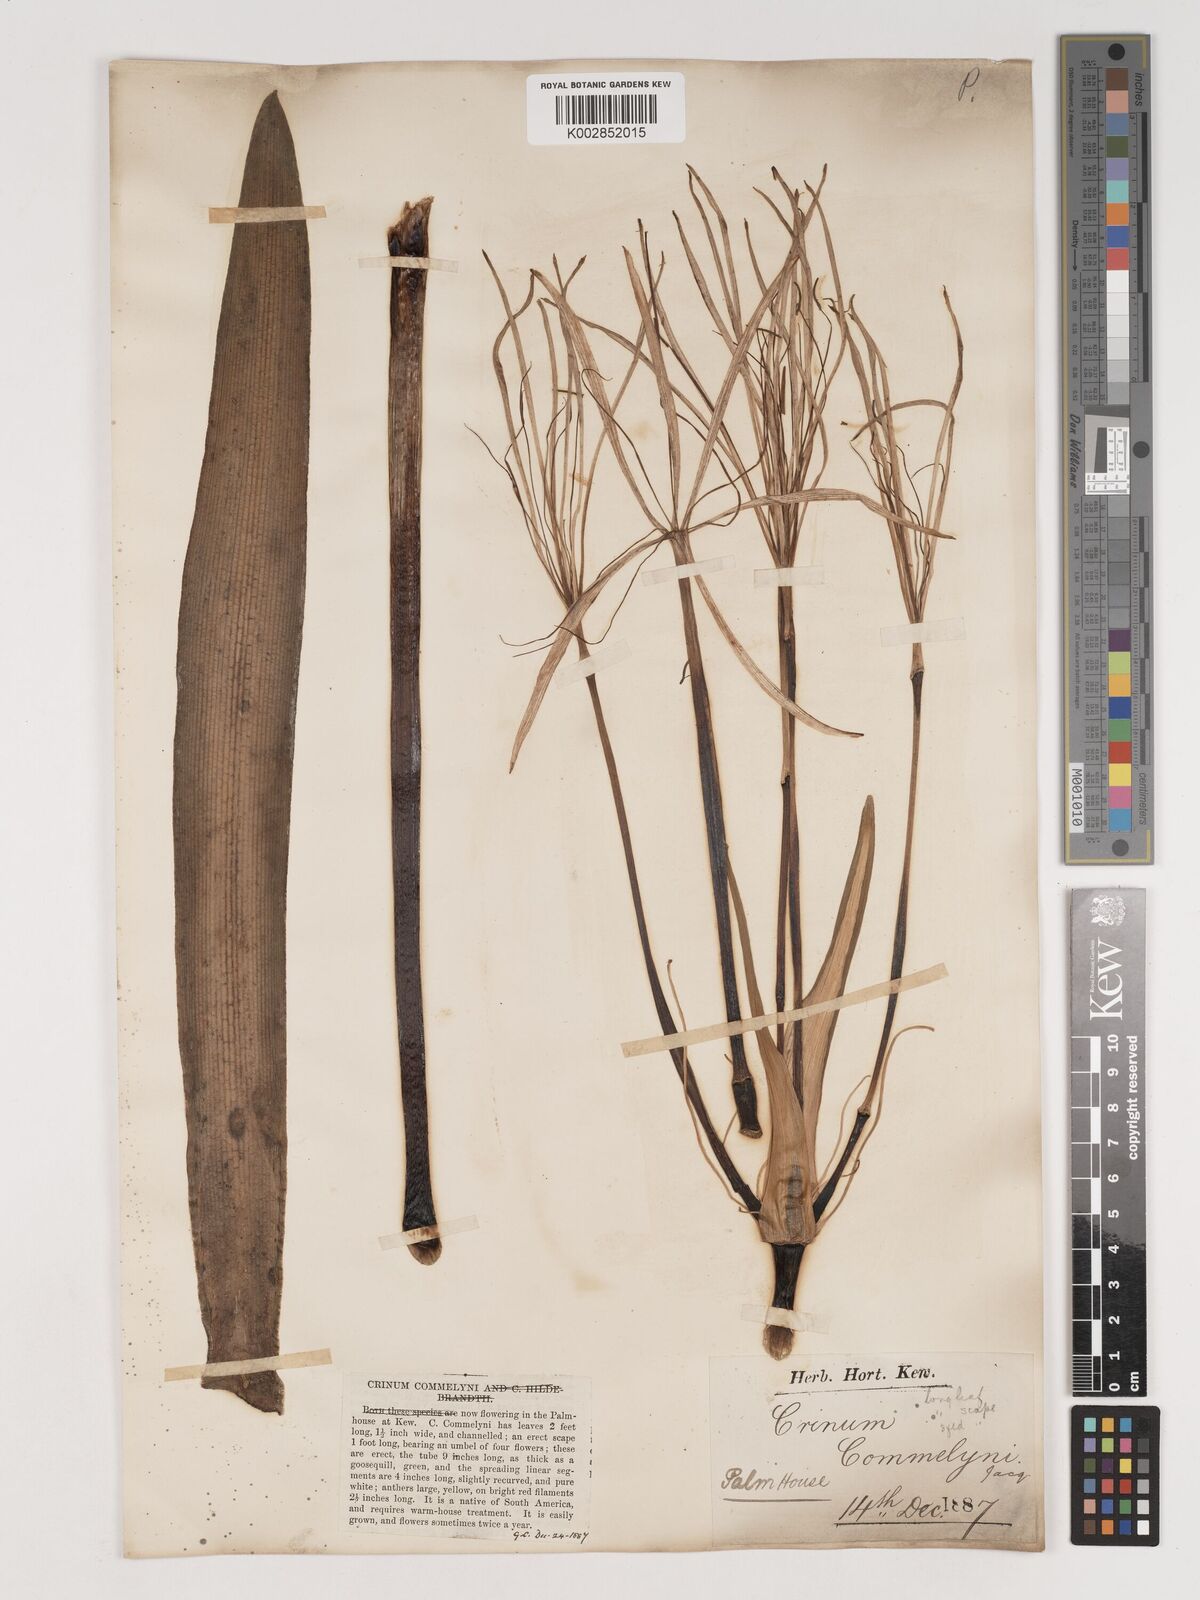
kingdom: Plantae
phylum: Tracheophyta
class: Liliopsida
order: Asparagales
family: Amaryllidaceae
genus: Crinum
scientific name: Crinum erubescens
